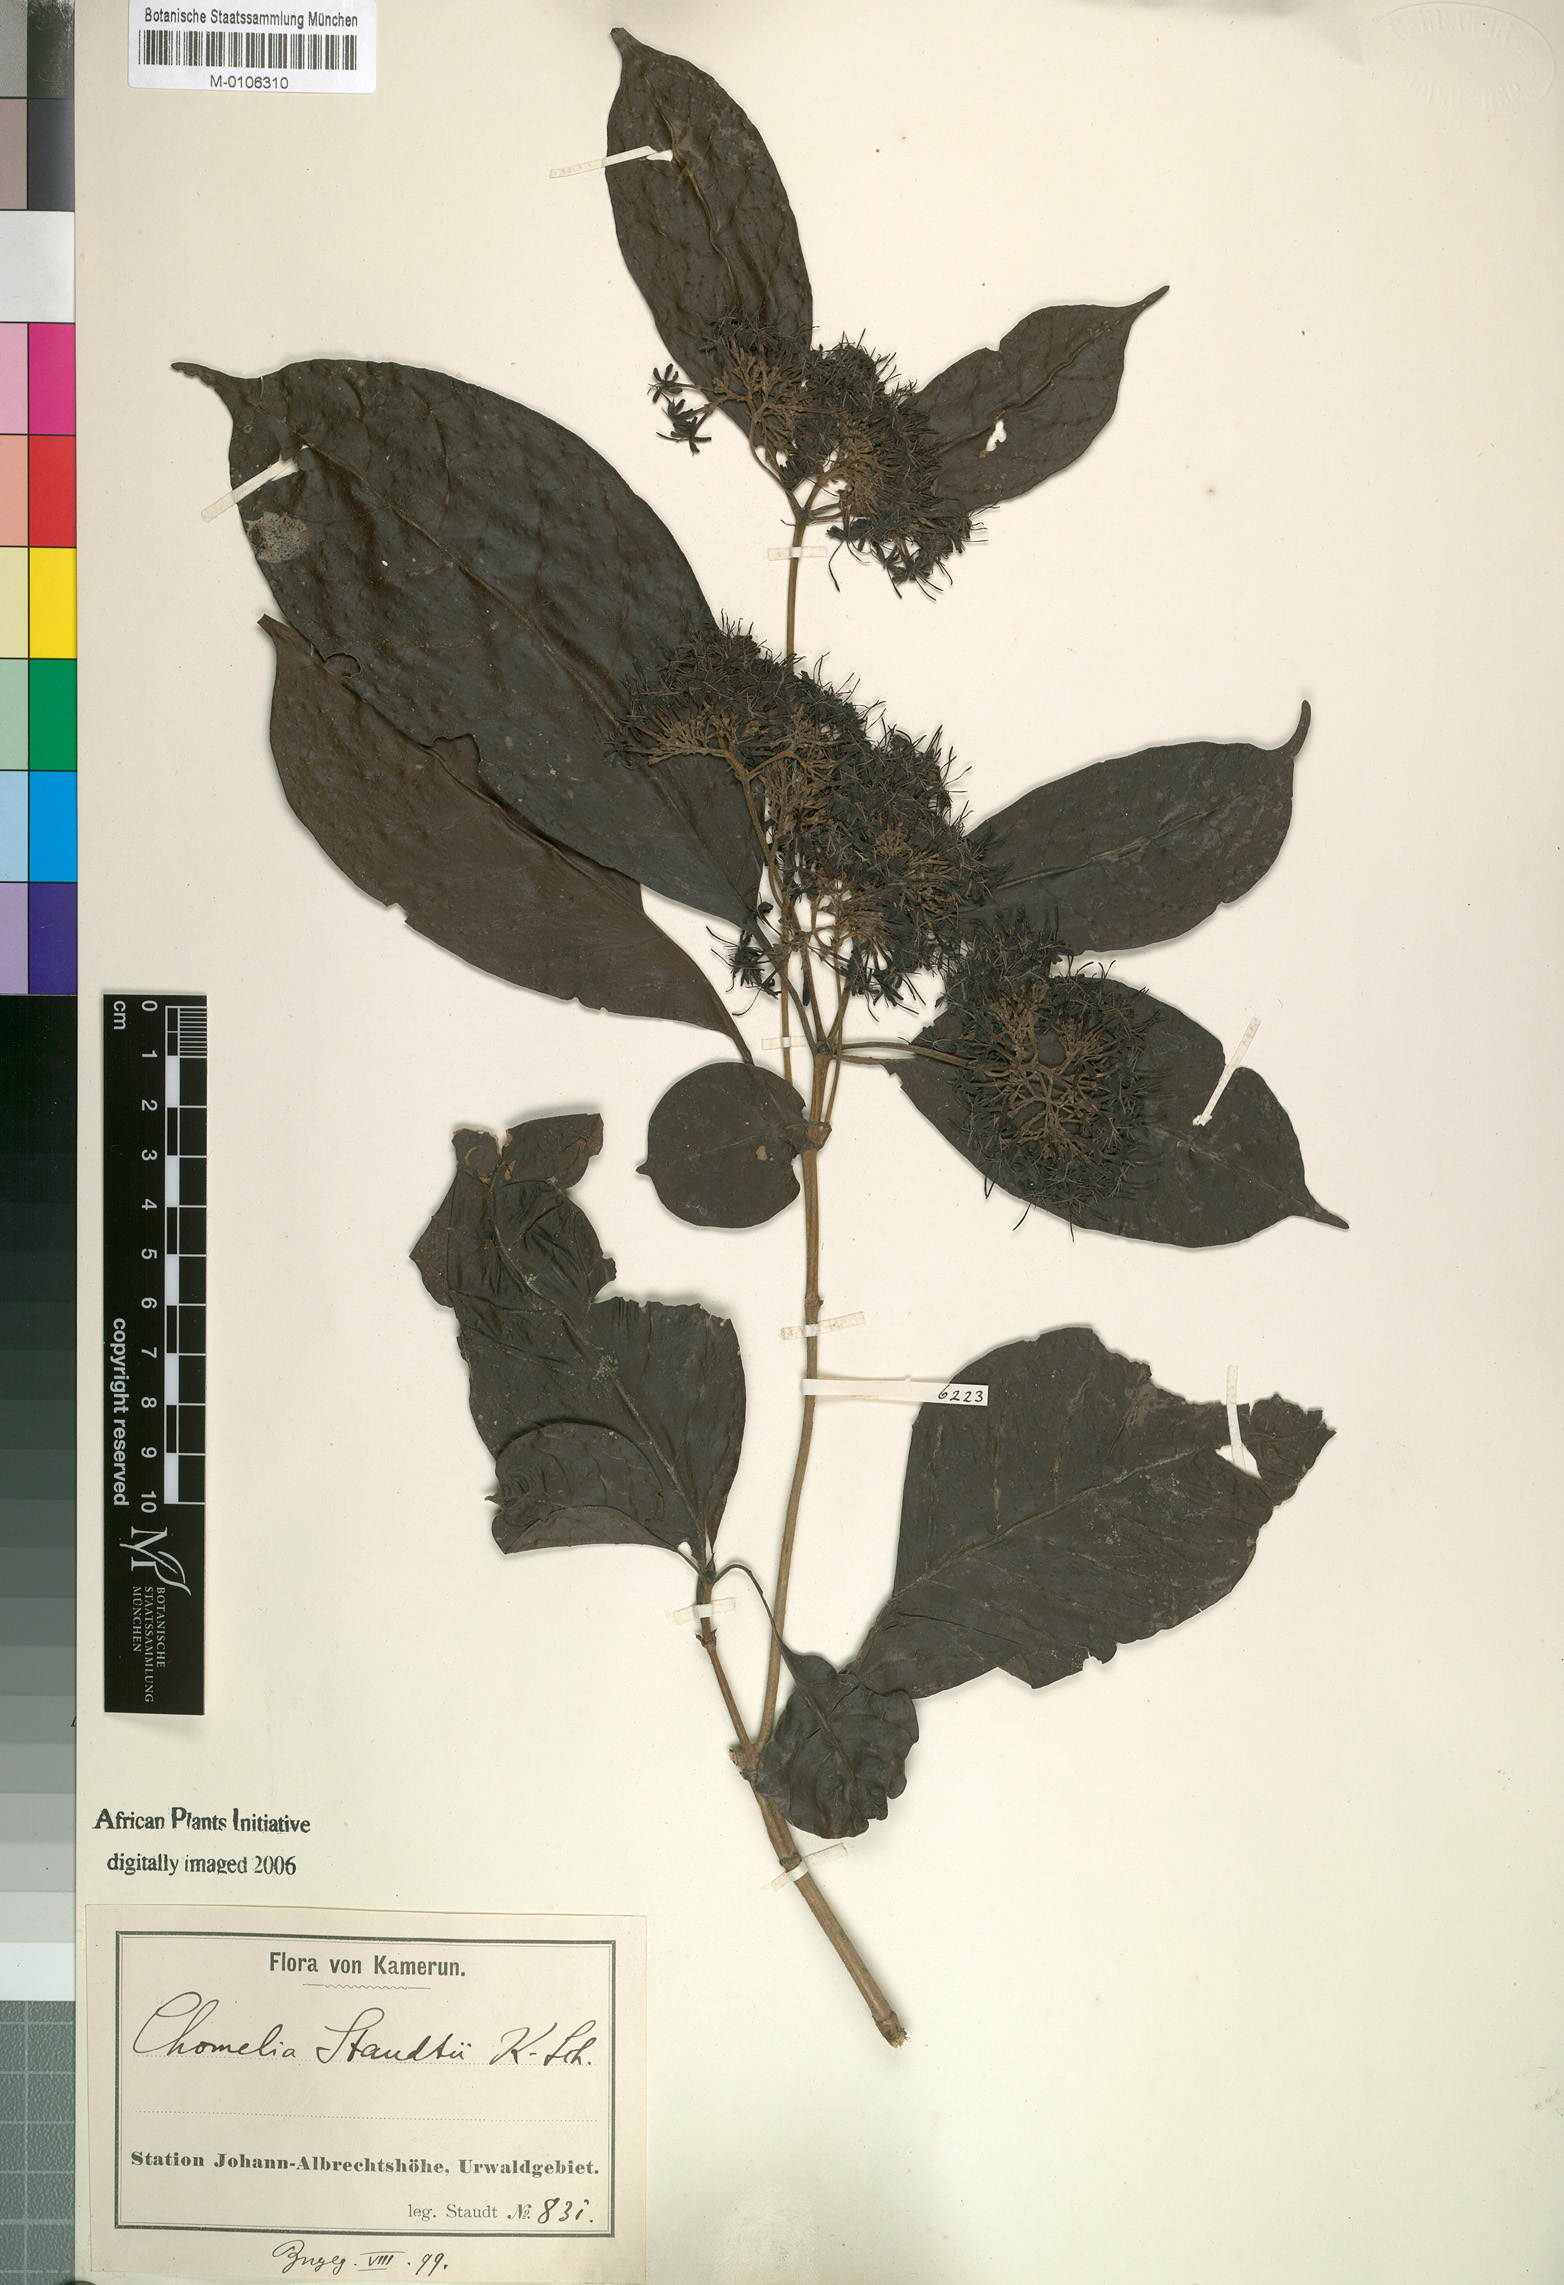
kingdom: Plantae
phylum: Tracheophyta
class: Magnoliopsida
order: Gentianales
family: Rubiaceae
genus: Chomelia
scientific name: Chomelia
